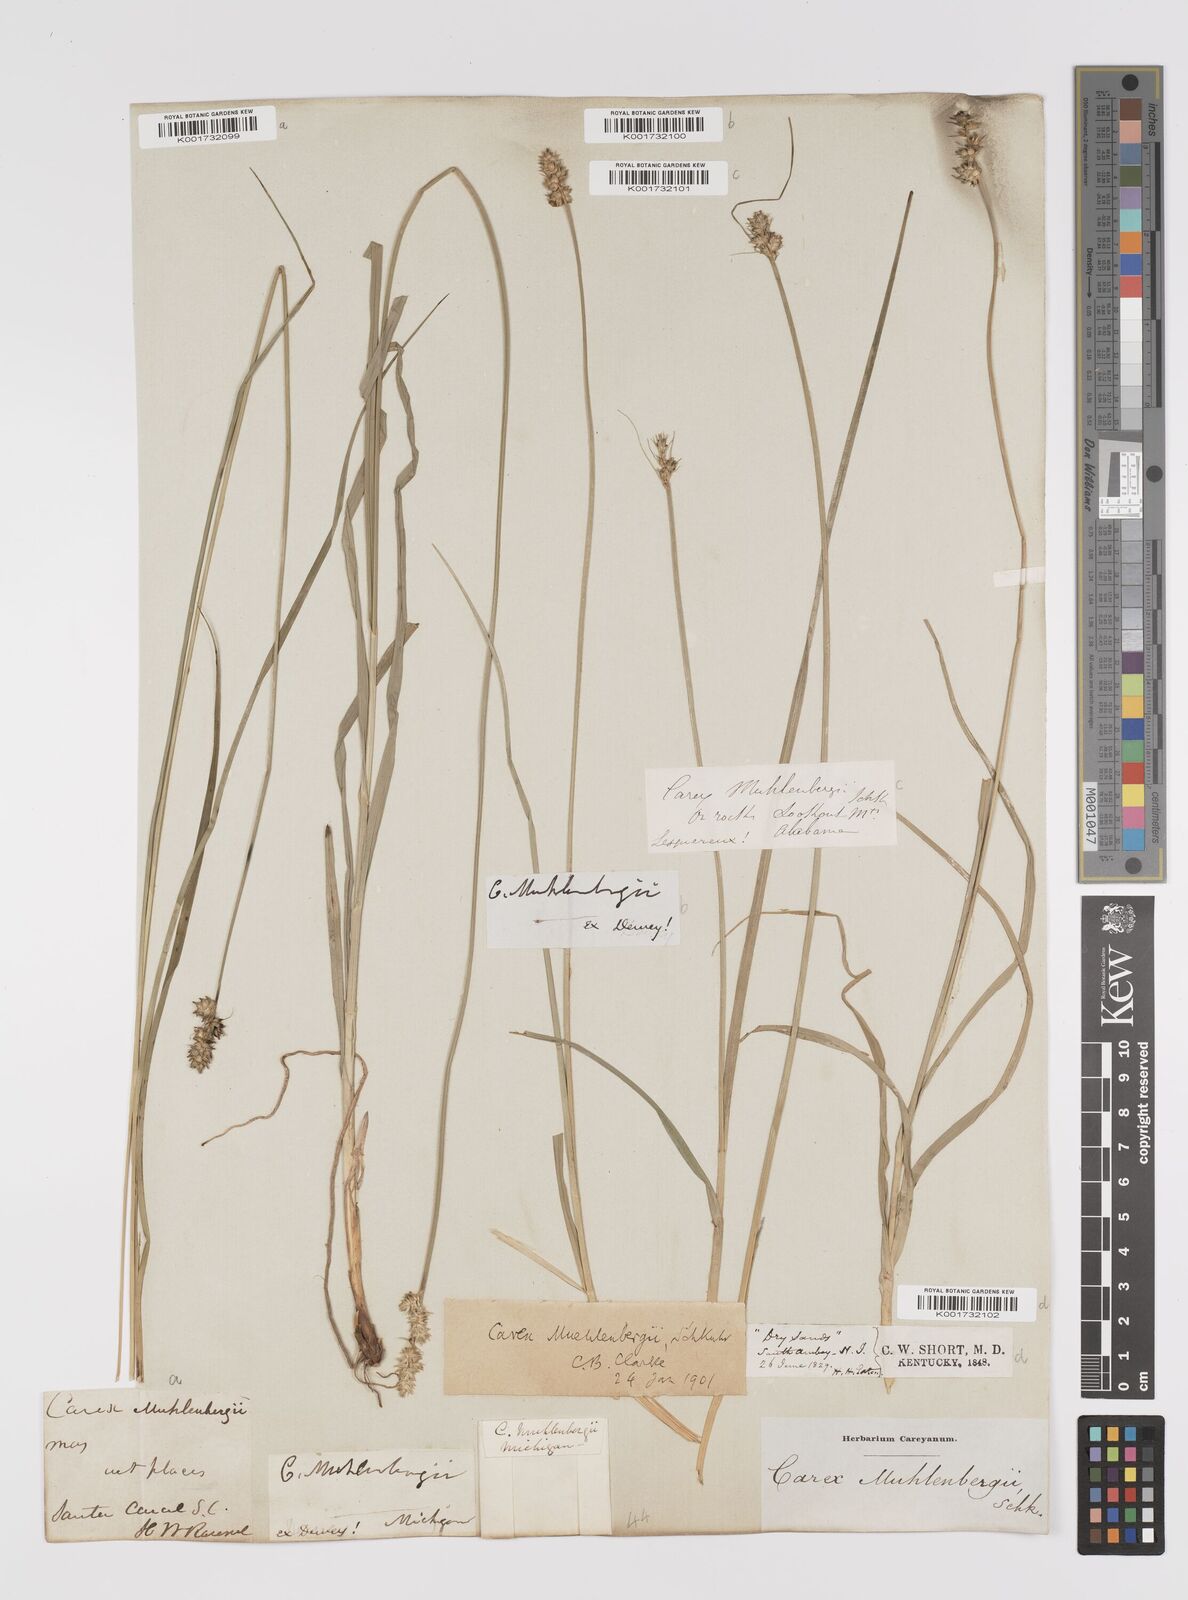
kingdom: Plantae
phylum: Tracheophyta
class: Liliopsida
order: Poales
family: Cyperaceae
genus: Carex
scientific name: Carex vulpinoidea
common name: American fox-sedge
